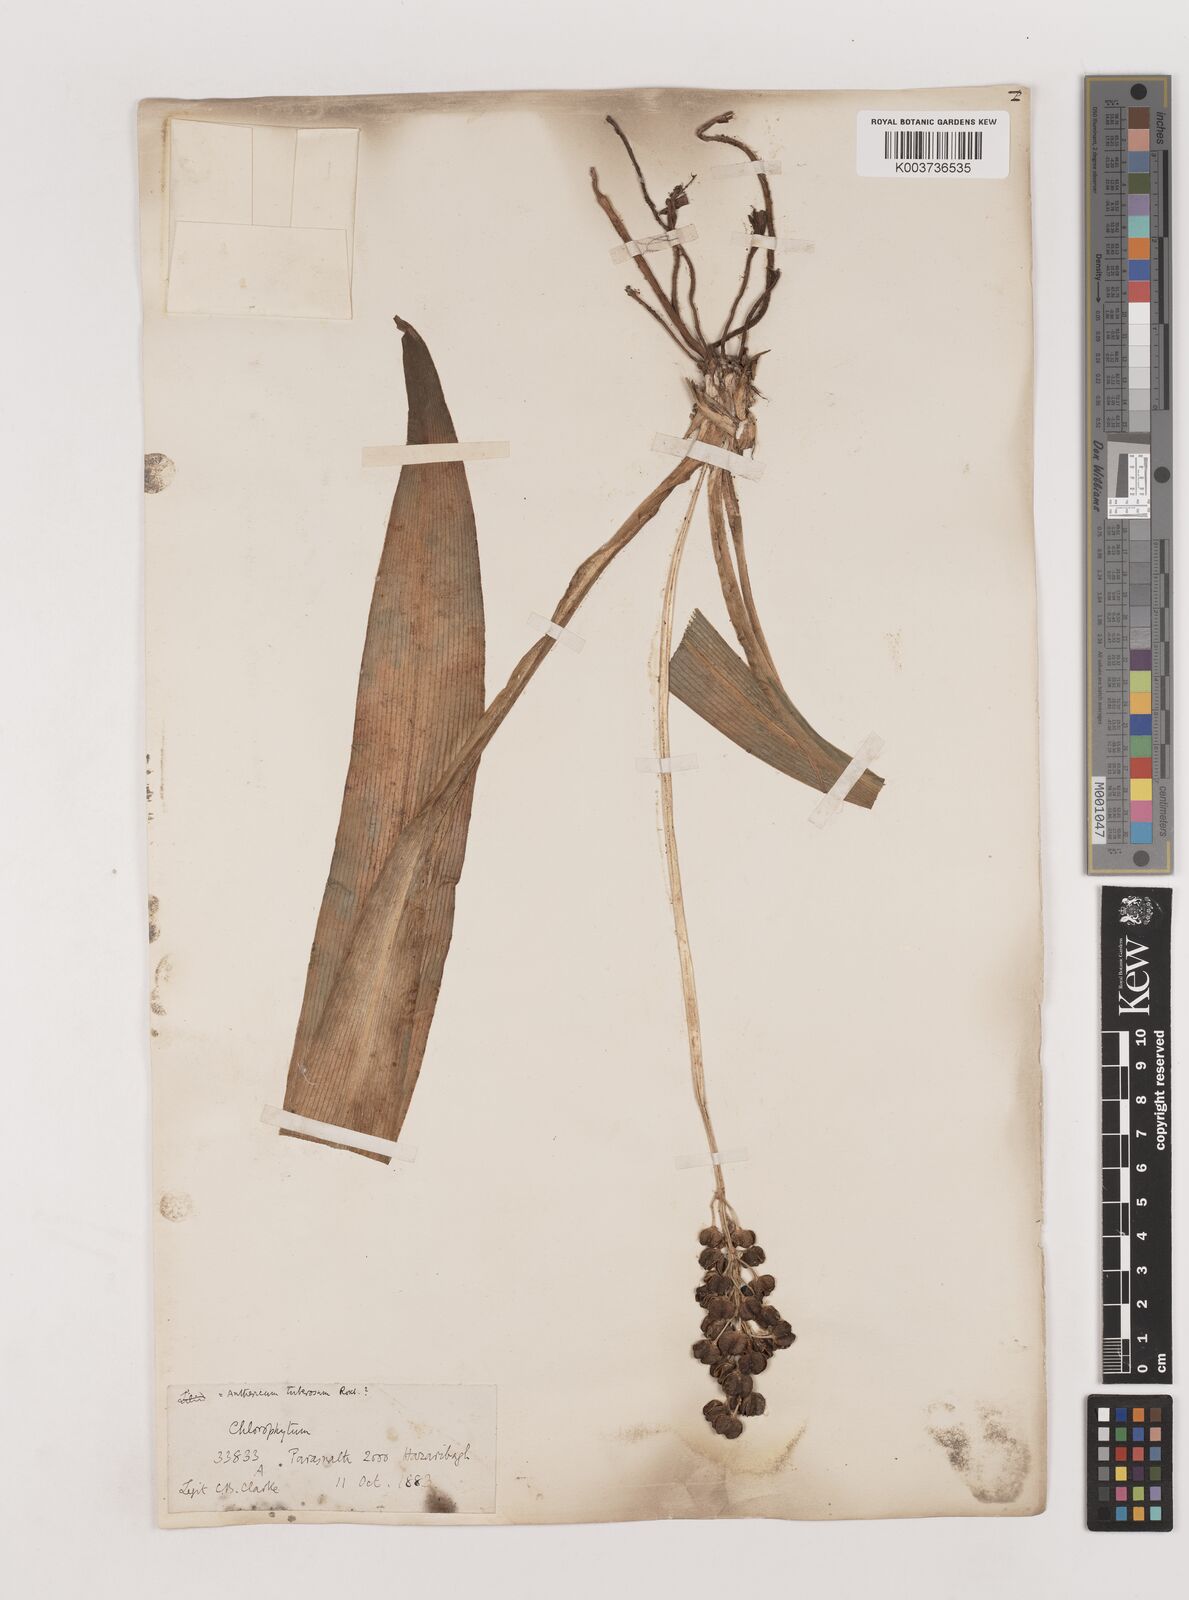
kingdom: Plantae
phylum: Tracheophyta
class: Liliopsida
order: Asparagales
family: Asparagaceae
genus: Chlorophytum
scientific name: Chlorophytum arundinaceum
